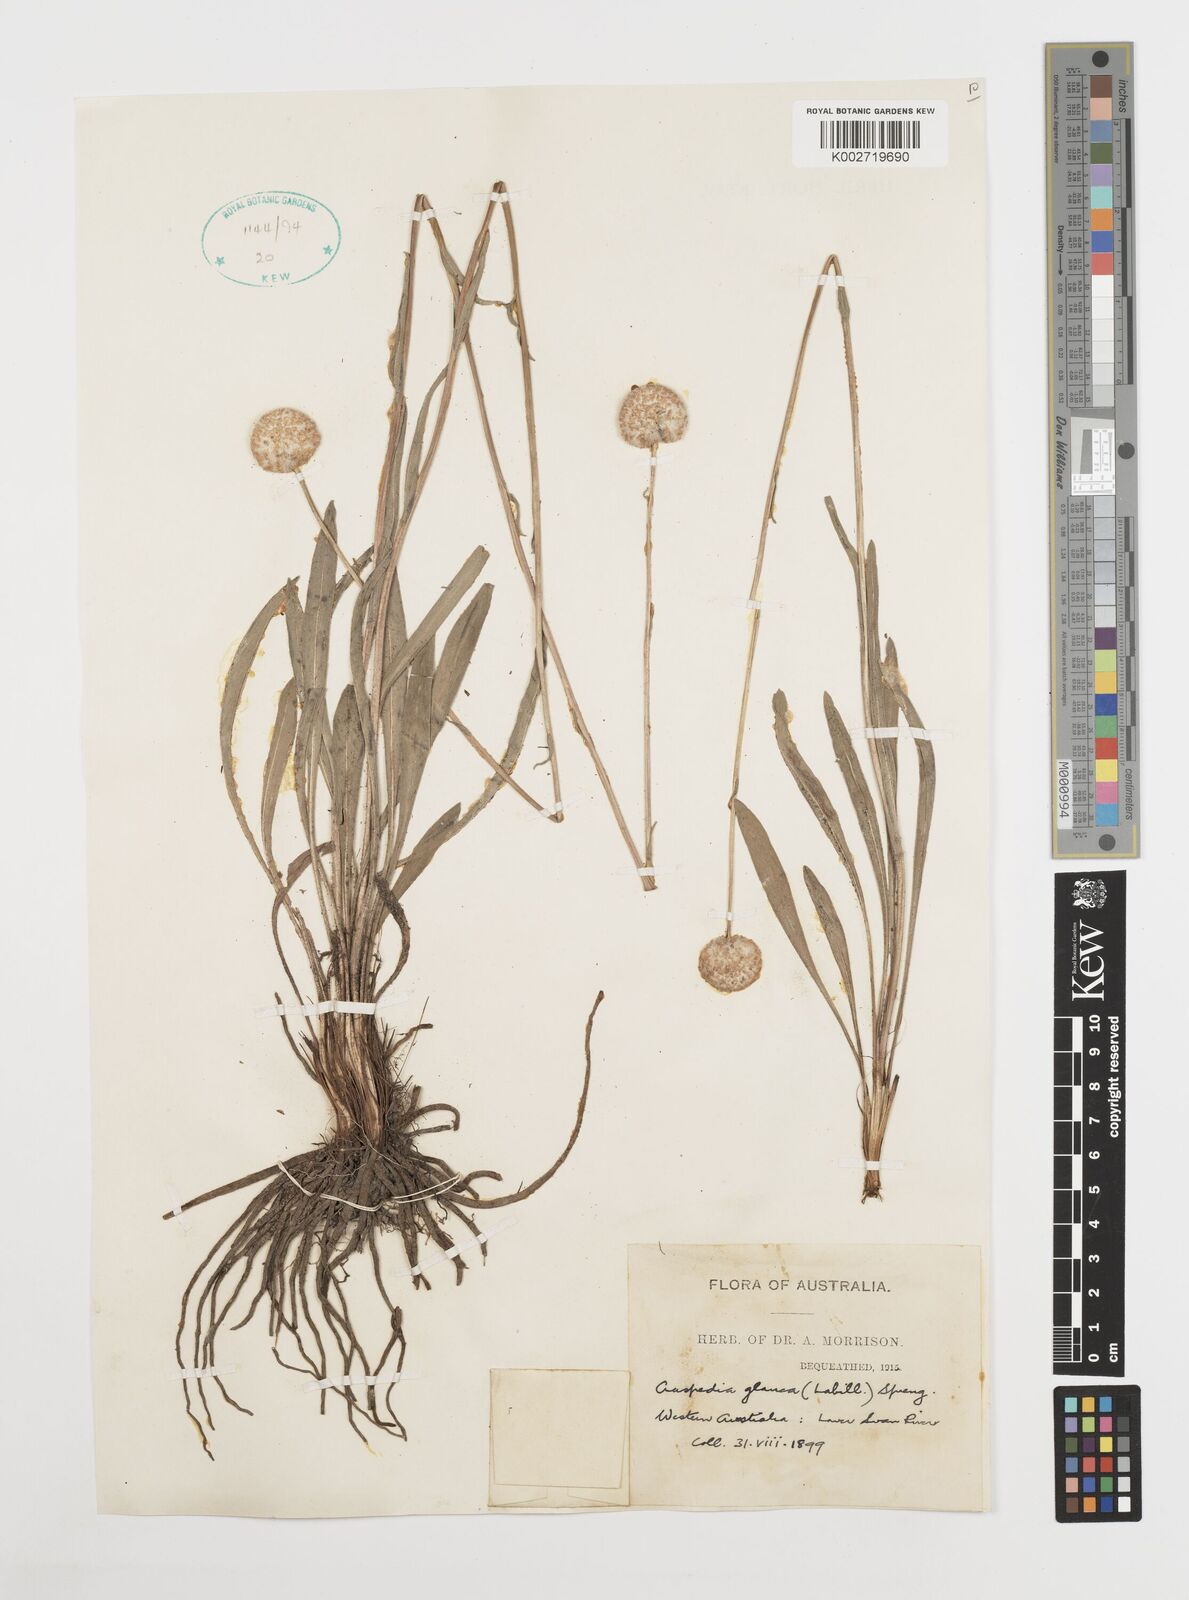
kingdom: Plantae
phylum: Tracheophyta
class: Magnoliopsida
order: Asterales
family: Asteraceae
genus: Craspedia
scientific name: Craspedia glauca
